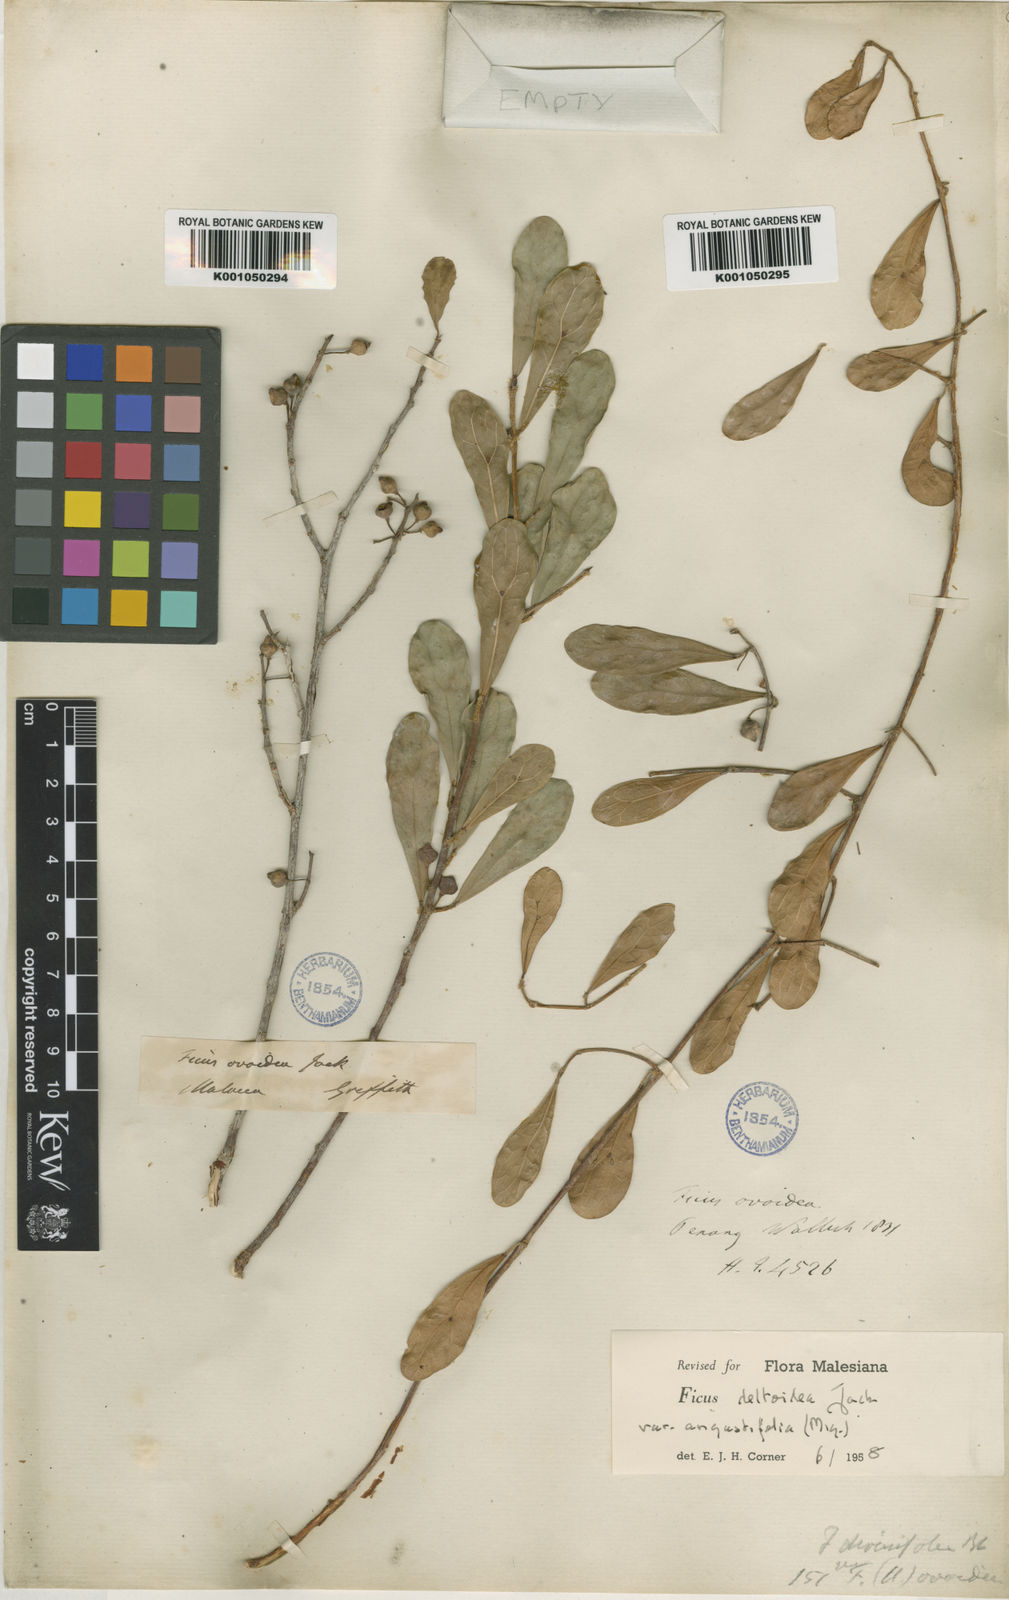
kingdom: Plantae
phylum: Tracheophyta
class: Magnoliopsida
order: Rosales
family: Moraceae
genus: Ficus
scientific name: Ficus deltoidea
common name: Mistletoe fig
